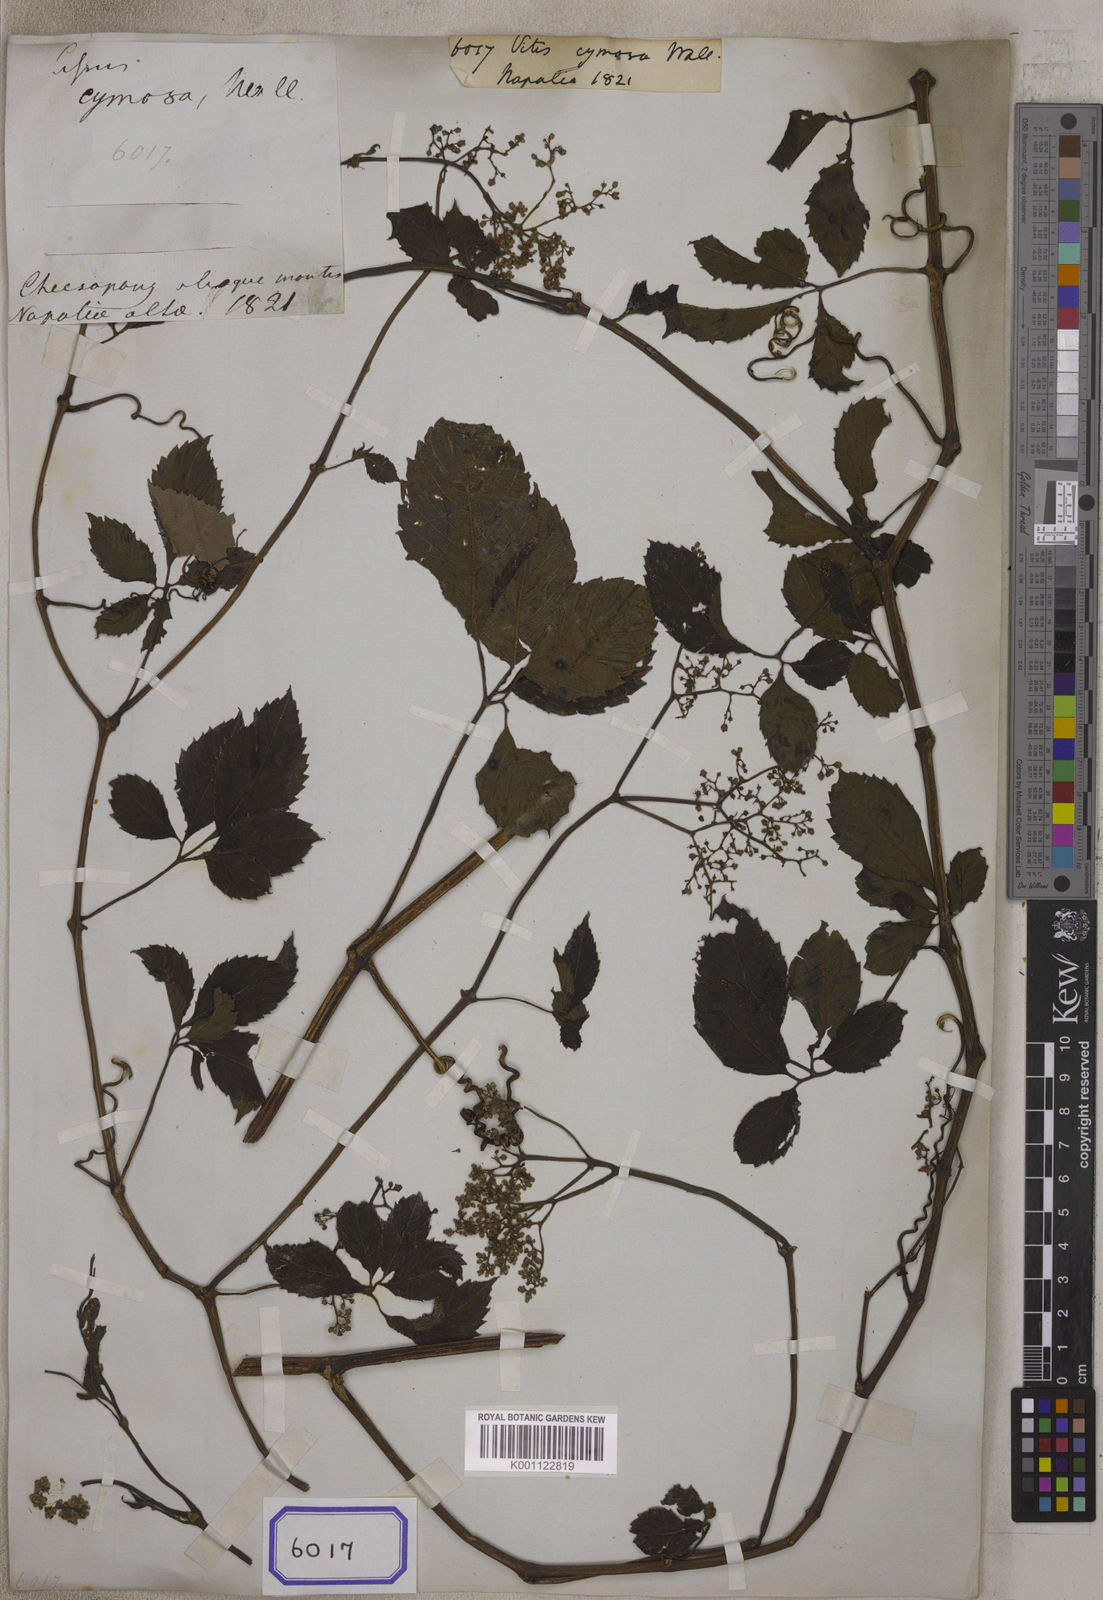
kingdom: Plantae
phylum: Tracheophyta
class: Magnoliopsida
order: Vitales
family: Vitaceae
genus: Vitis
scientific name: Vitis
